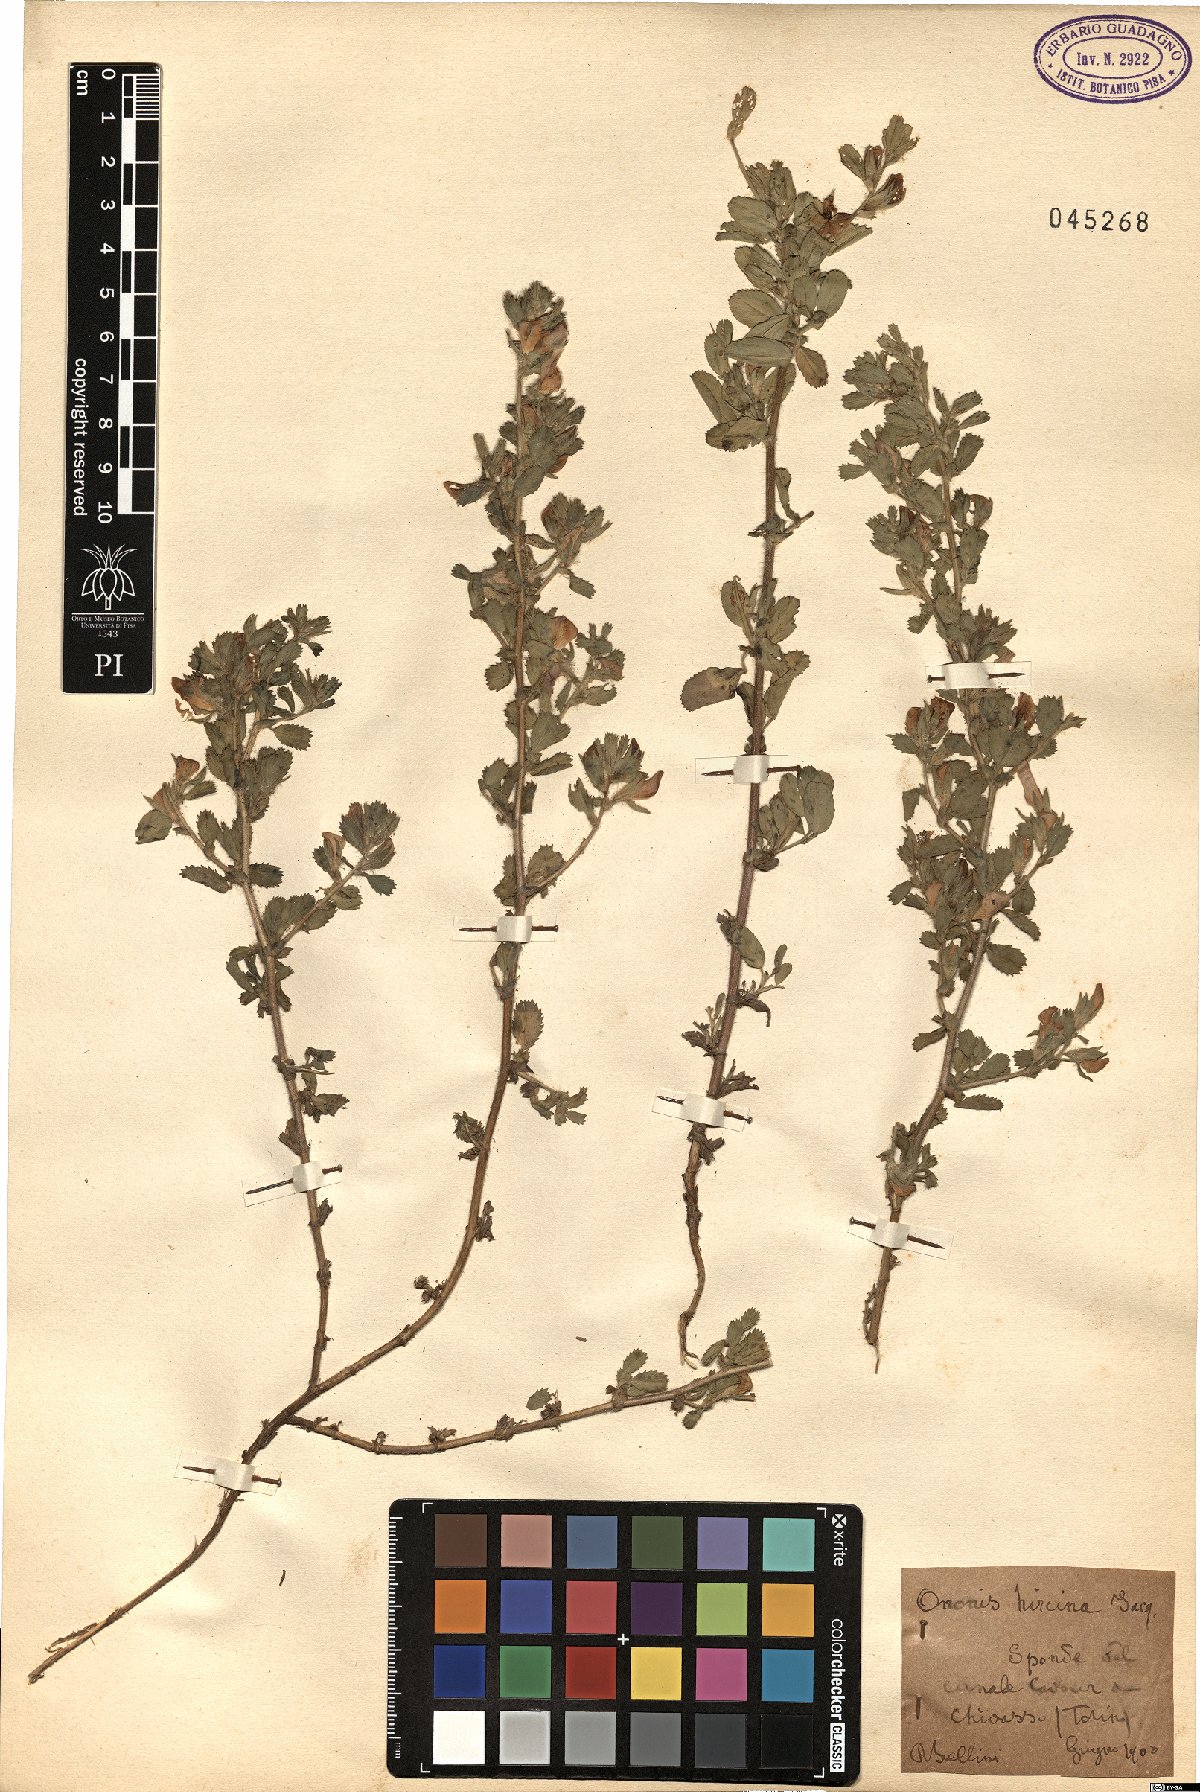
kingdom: Plantae
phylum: Tracheophyta
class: Magnoliopsida
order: Fabales
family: Fabaceae
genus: Ononis
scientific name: Ononis arvensis
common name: Field restharrow
